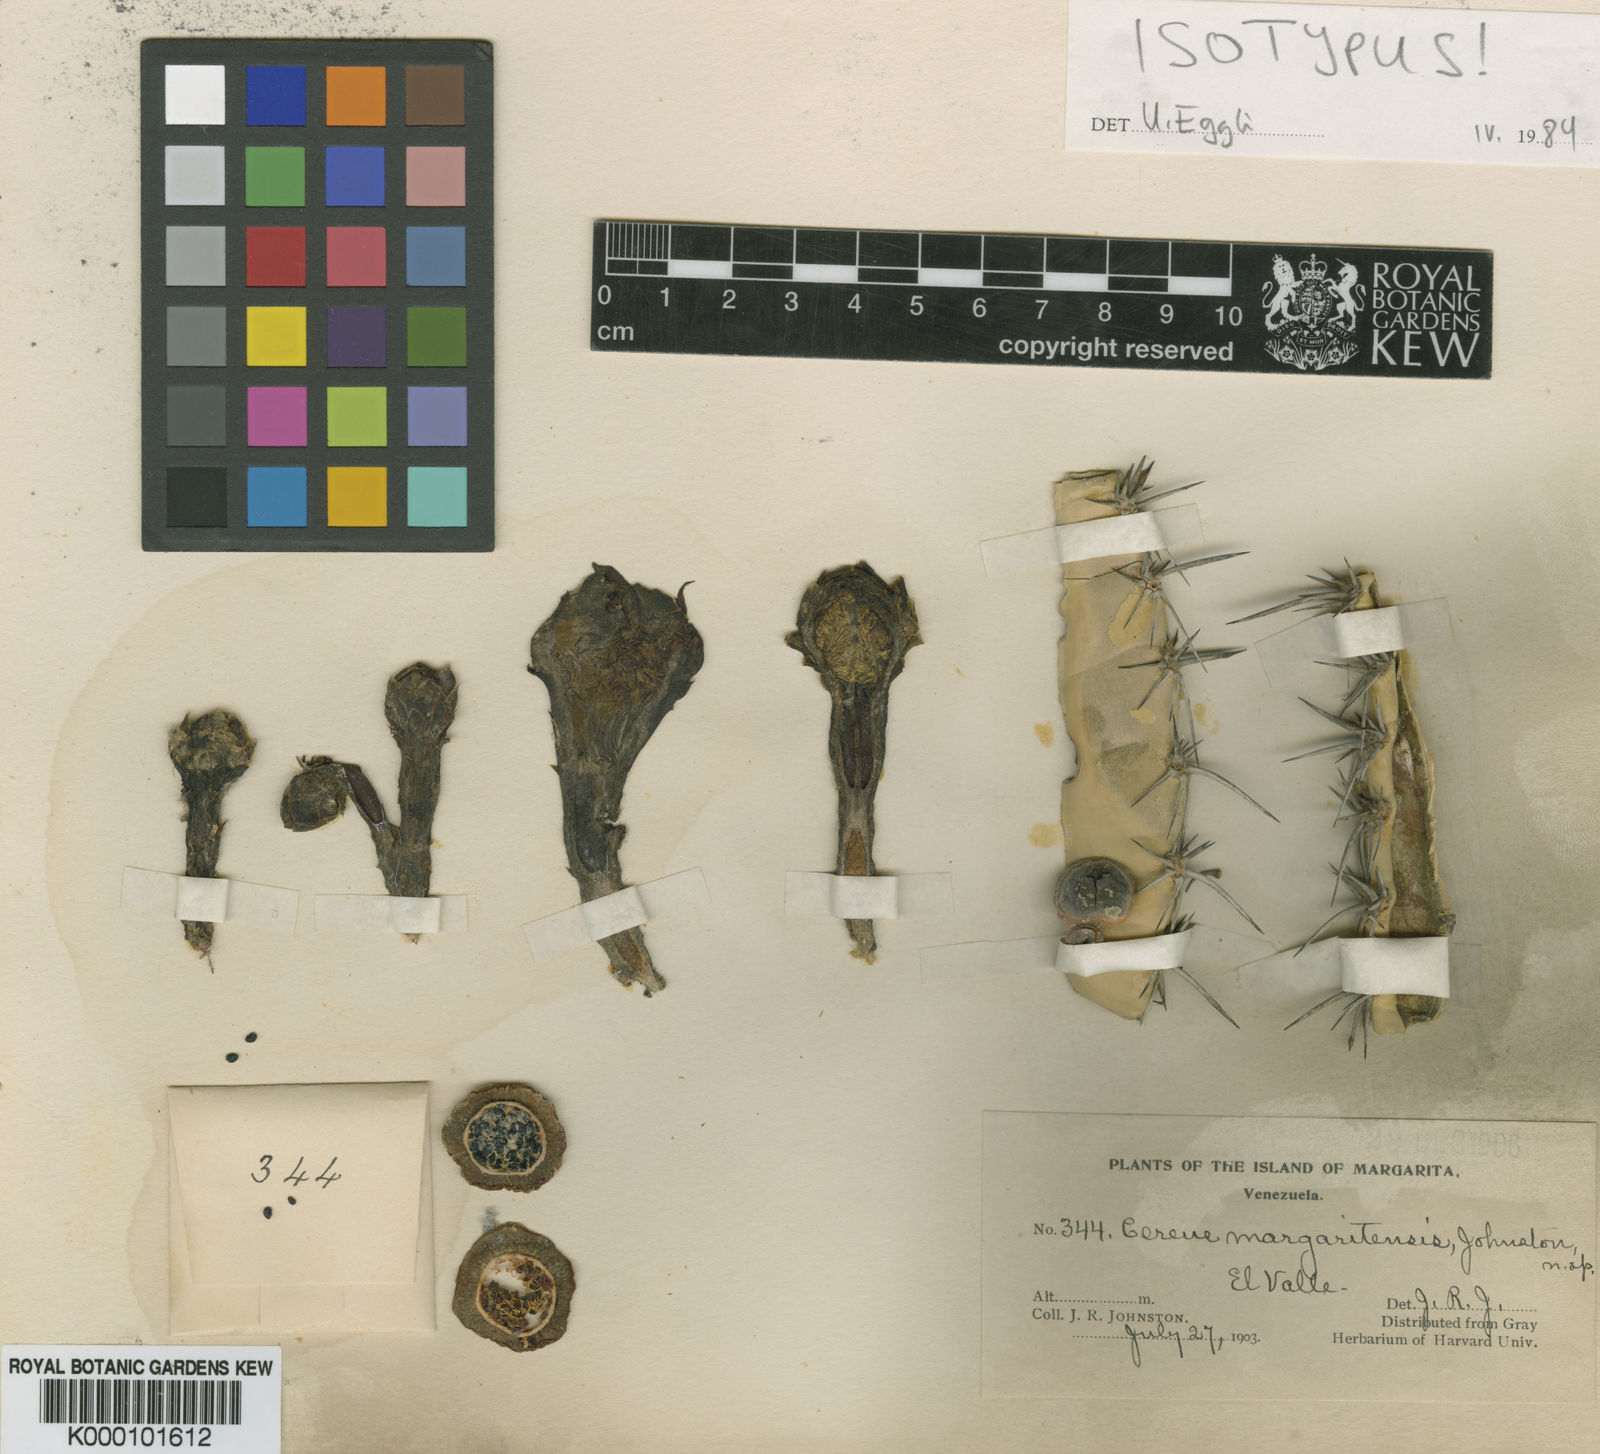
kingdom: Plantae
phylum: Tracheophyta
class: Magnoliopsida
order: Caryophyllales
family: Cactaceae
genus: Cereus
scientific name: Cereus
